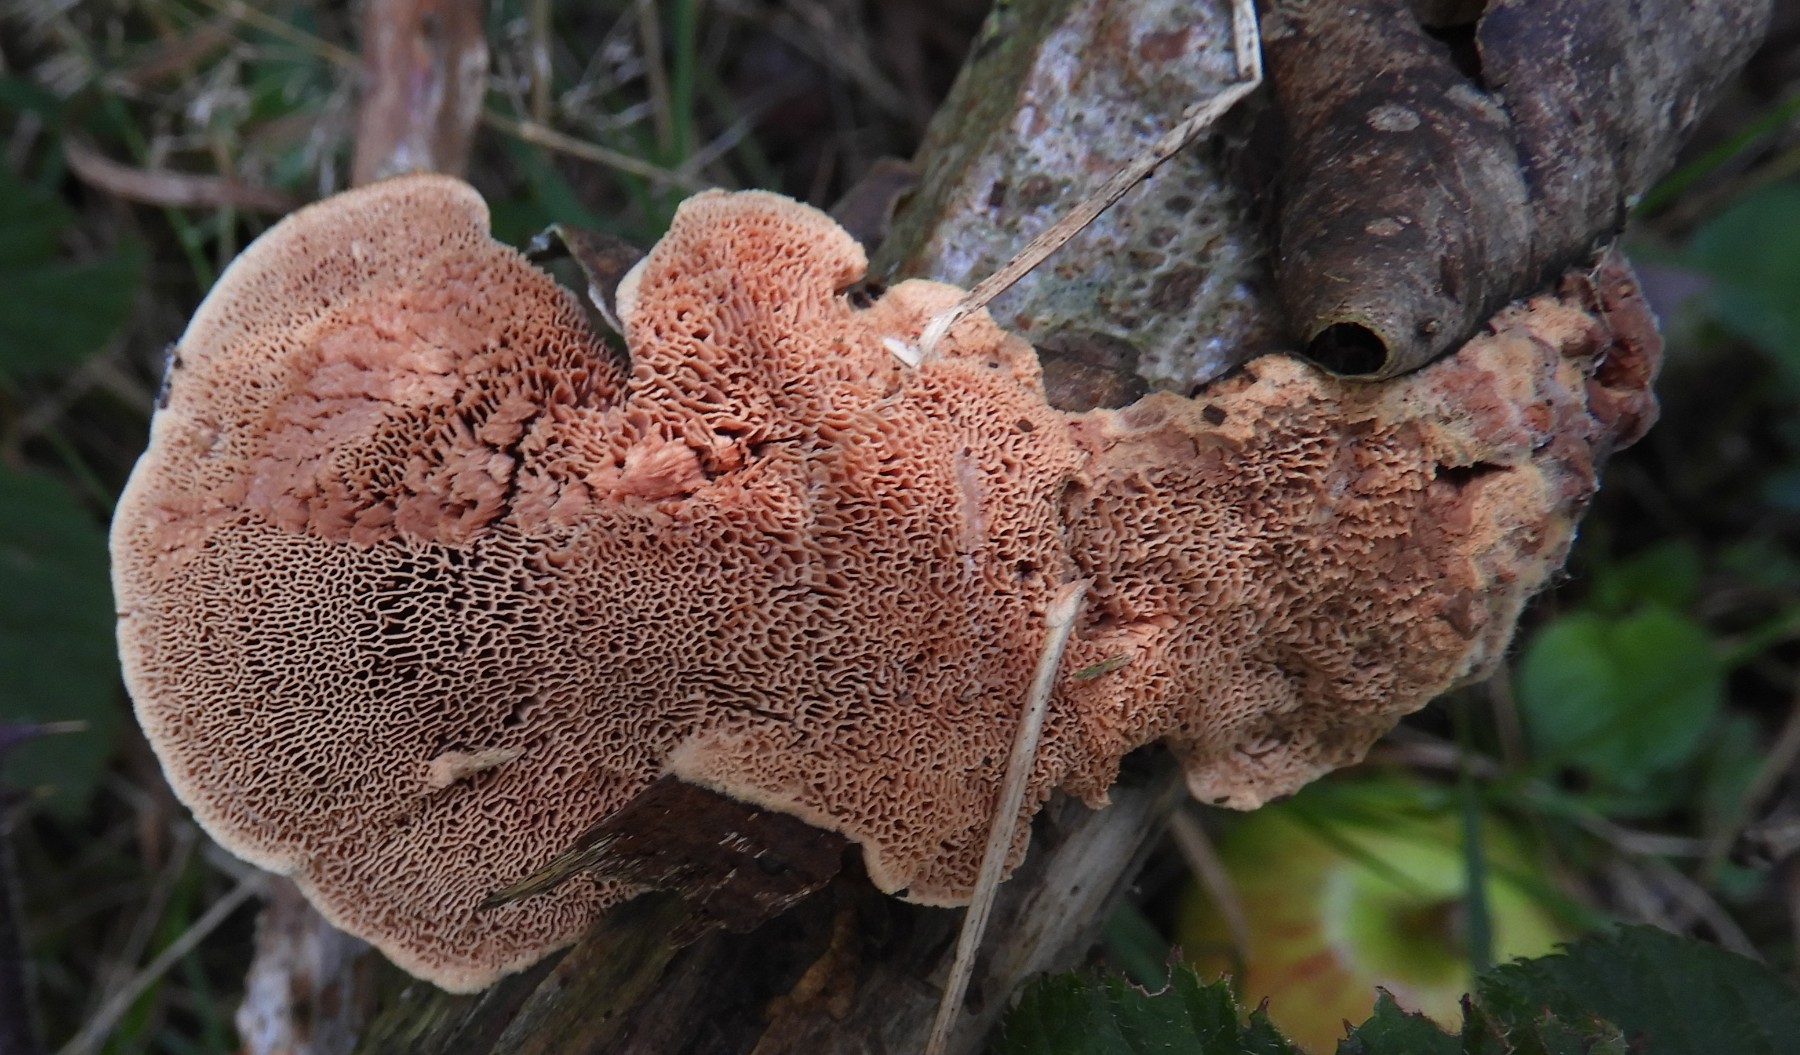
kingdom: Fungi
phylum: Basidiomycota
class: Agaricomycetes
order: Polyporales
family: Phanerochaetaceae
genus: Hapalopilus
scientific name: Hapalopilus rutilans
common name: rødlig okkerporesvamp
